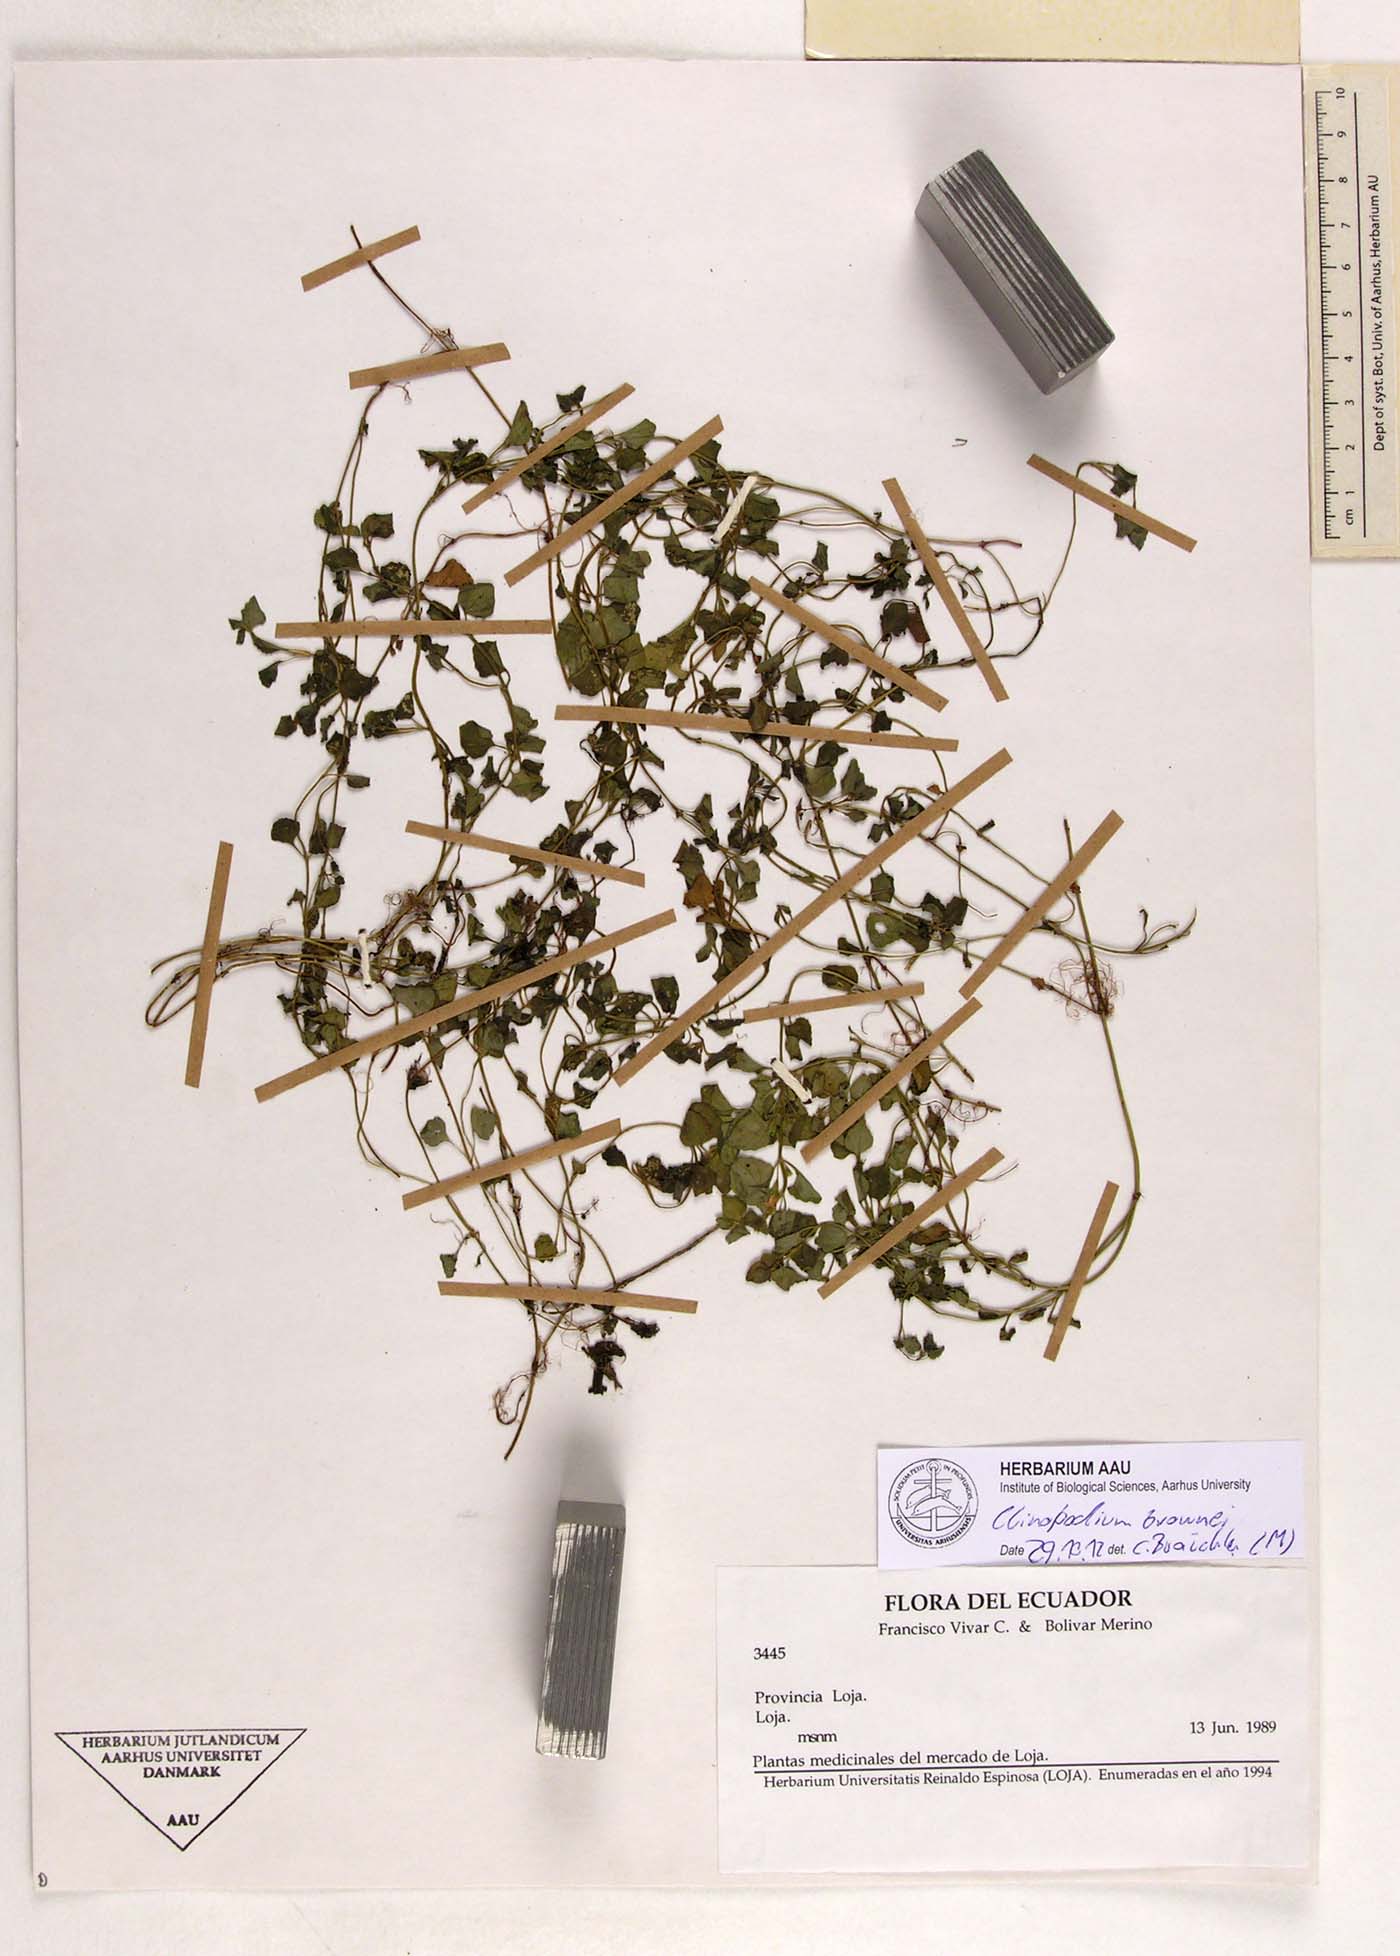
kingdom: Plantae
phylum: Tracheophyta
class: Magnoliopsida
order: Lamiales
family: Lamiaceae
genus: Clinopodium
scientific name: Clinopodium brownei
